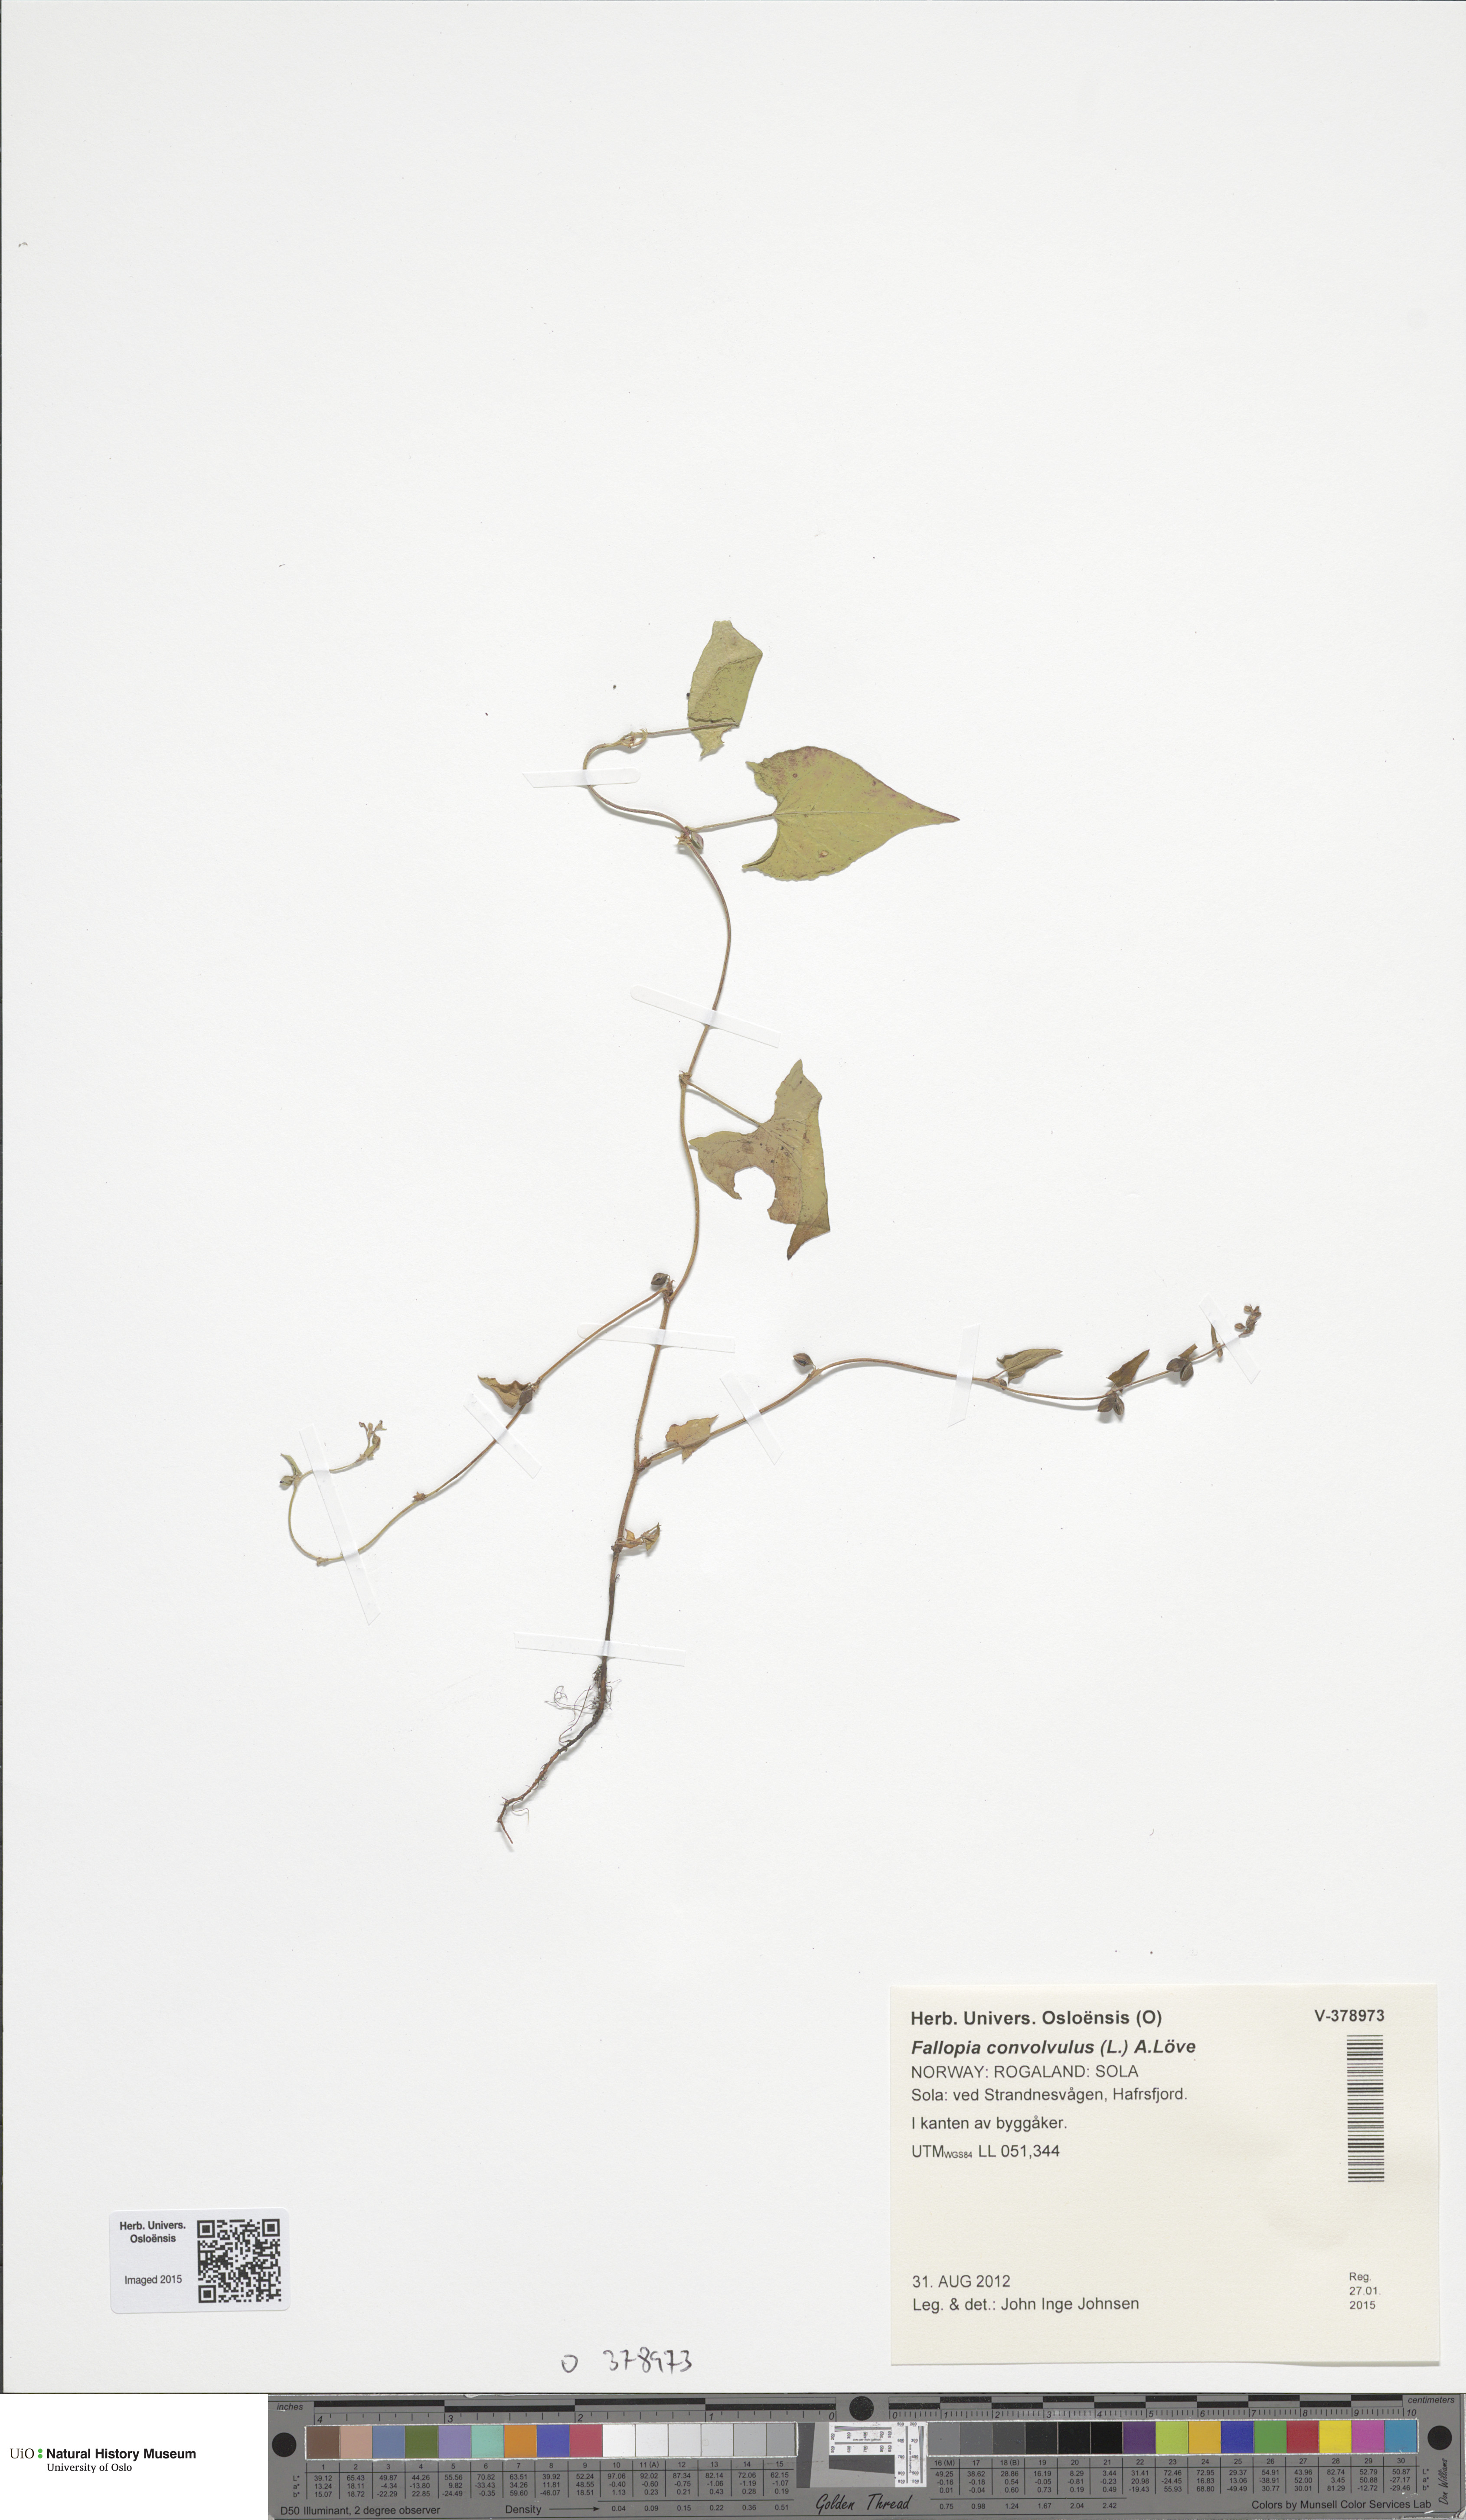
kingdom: Plantae
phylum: Tracheophyta
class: Magnoliopsida
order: Caryophyllales
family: Polygonaceae
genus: Fallopia
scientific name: Fallopia convolvulus
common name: Black bindweed
